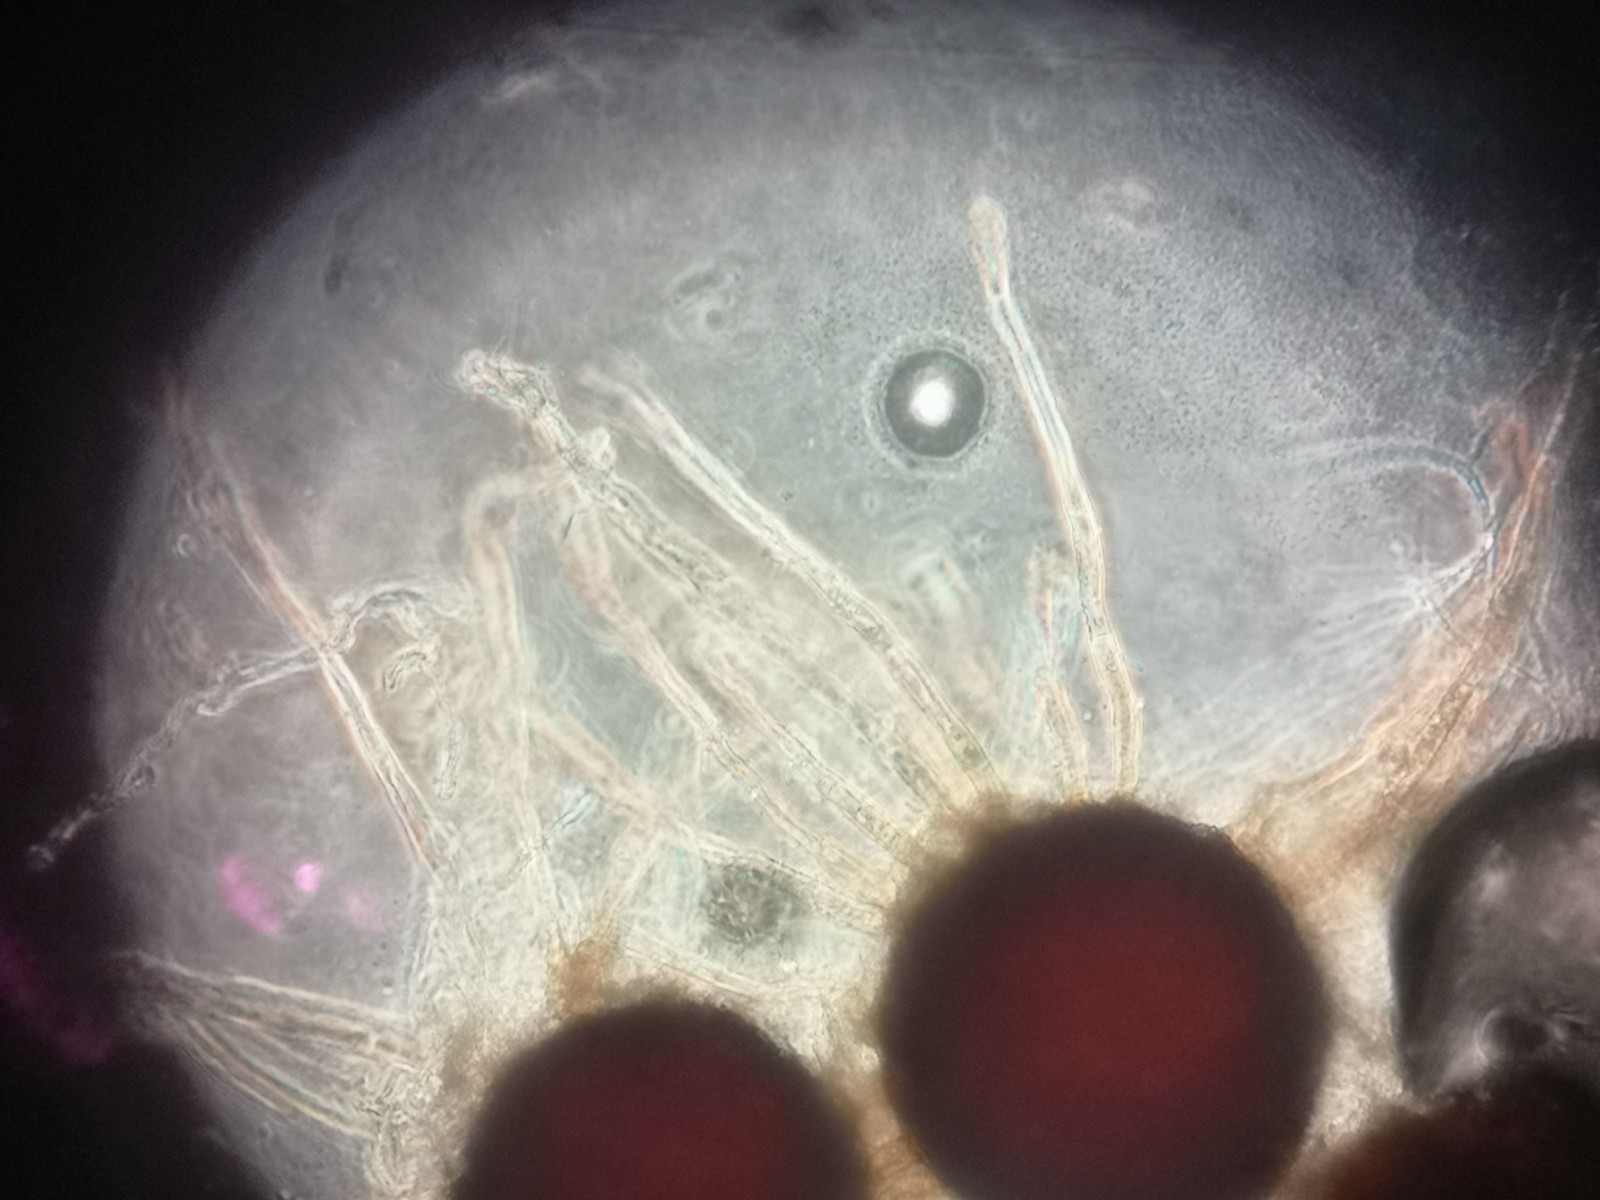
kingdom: Fungi
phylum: Ascomycota
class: Leotiomycetes
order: Helotiales
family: Erysiphaceae
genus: Erysiphe
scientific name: Erysiphe intermedia
